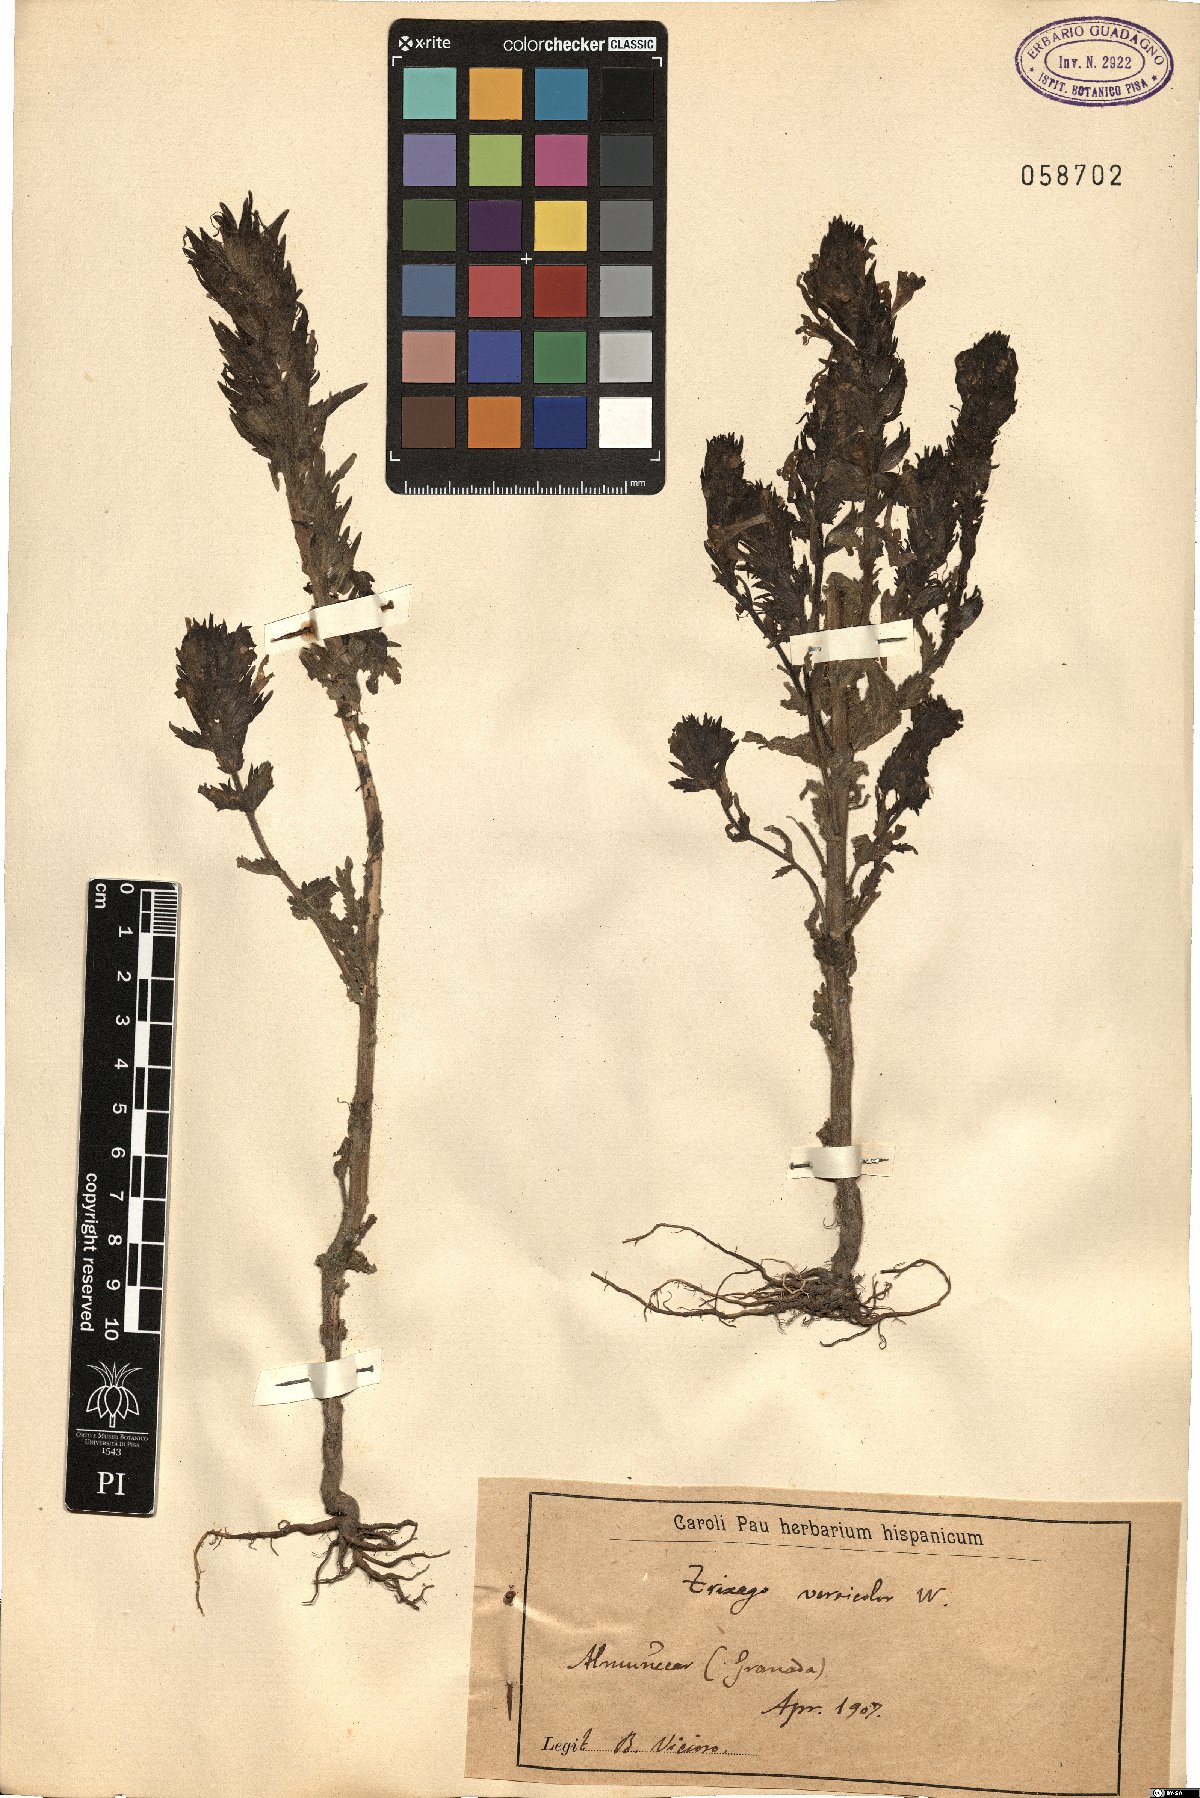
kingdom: Plantae
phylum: Tracheophyta
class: Magnoliopsida
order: Lamiales
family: Orobanchaceae
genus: Bellardia
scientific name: Bellardia trixago
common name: Mediterranean lineseed
